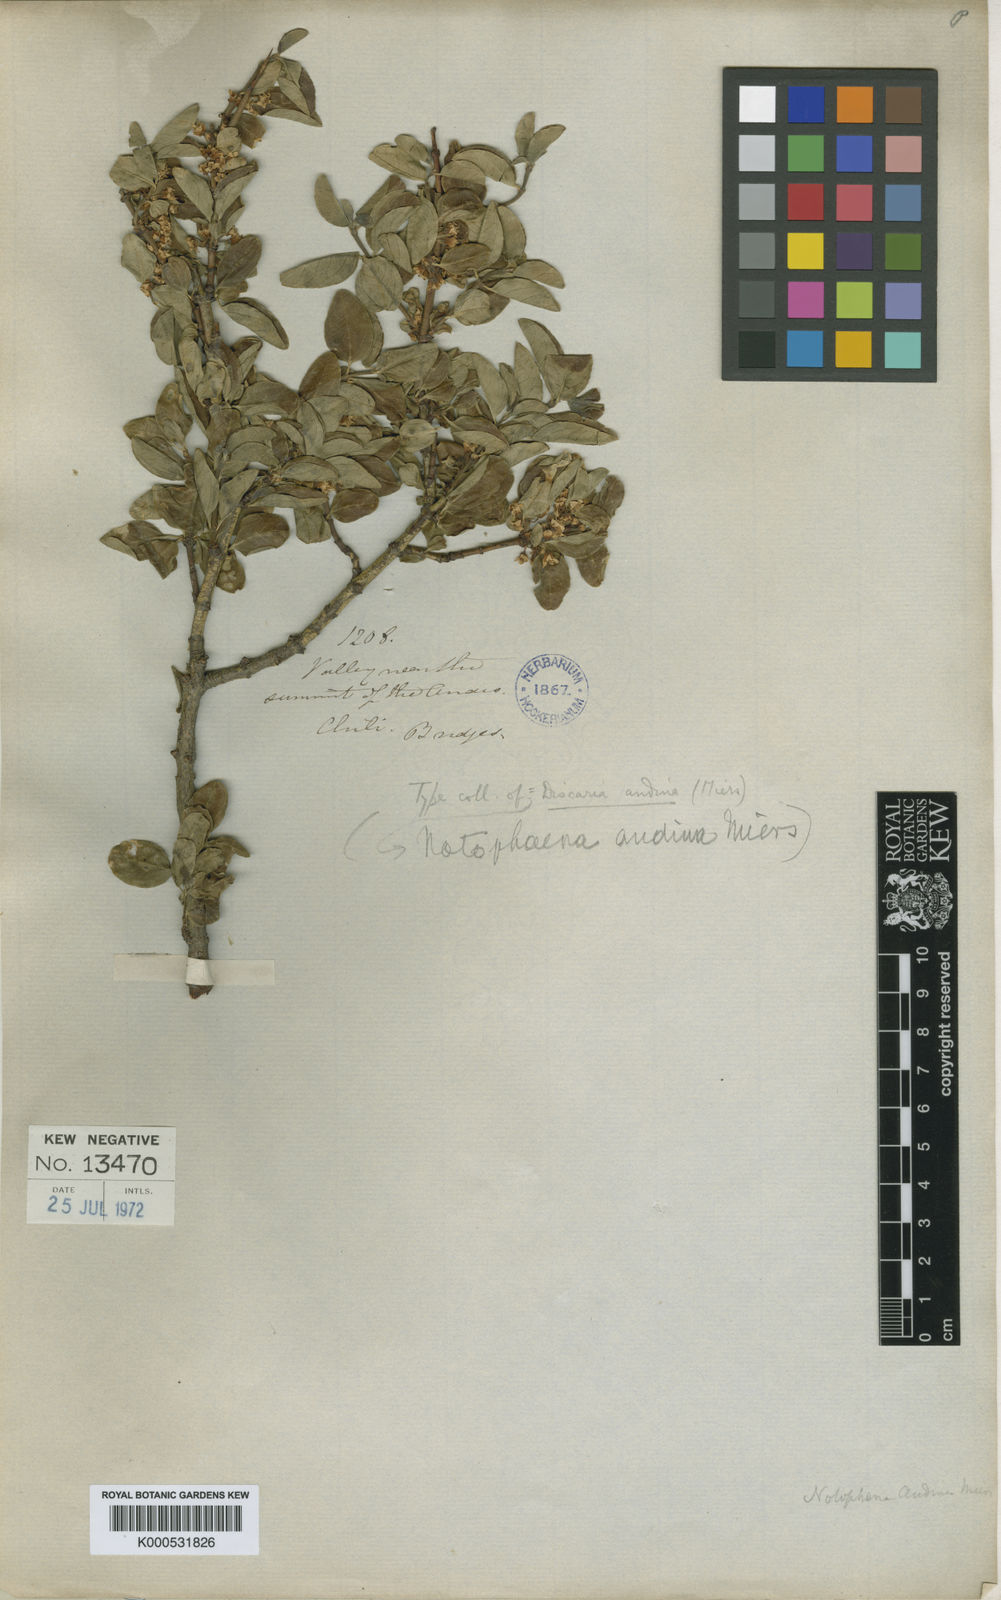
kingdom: Plantae
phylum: Tracheophyta
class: Magnoliopsida
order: Rosales
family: Rhamnaceae
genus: Discaria
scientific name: Discaria
